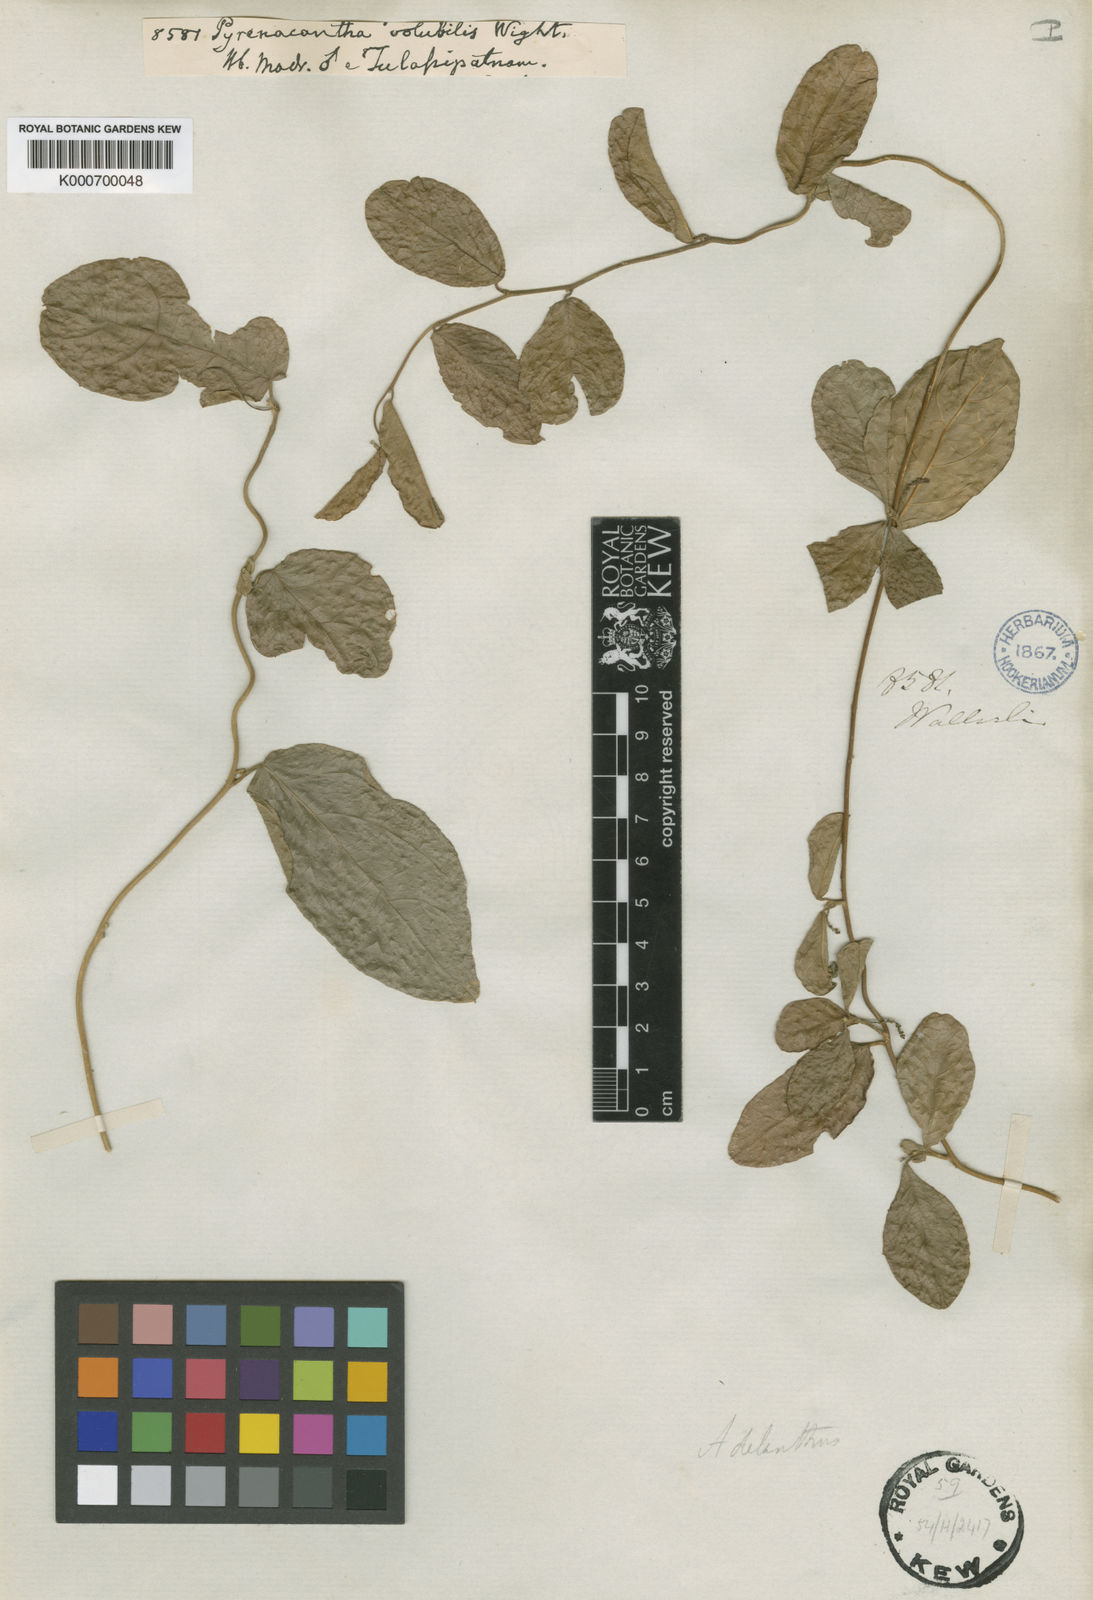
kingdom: Plantae
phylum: Tracheophyta
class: Magnoliopsida
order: Icacinales
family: Icacinaceae
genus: Pyrenacantha
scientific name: Pyrenacantha volubilis
